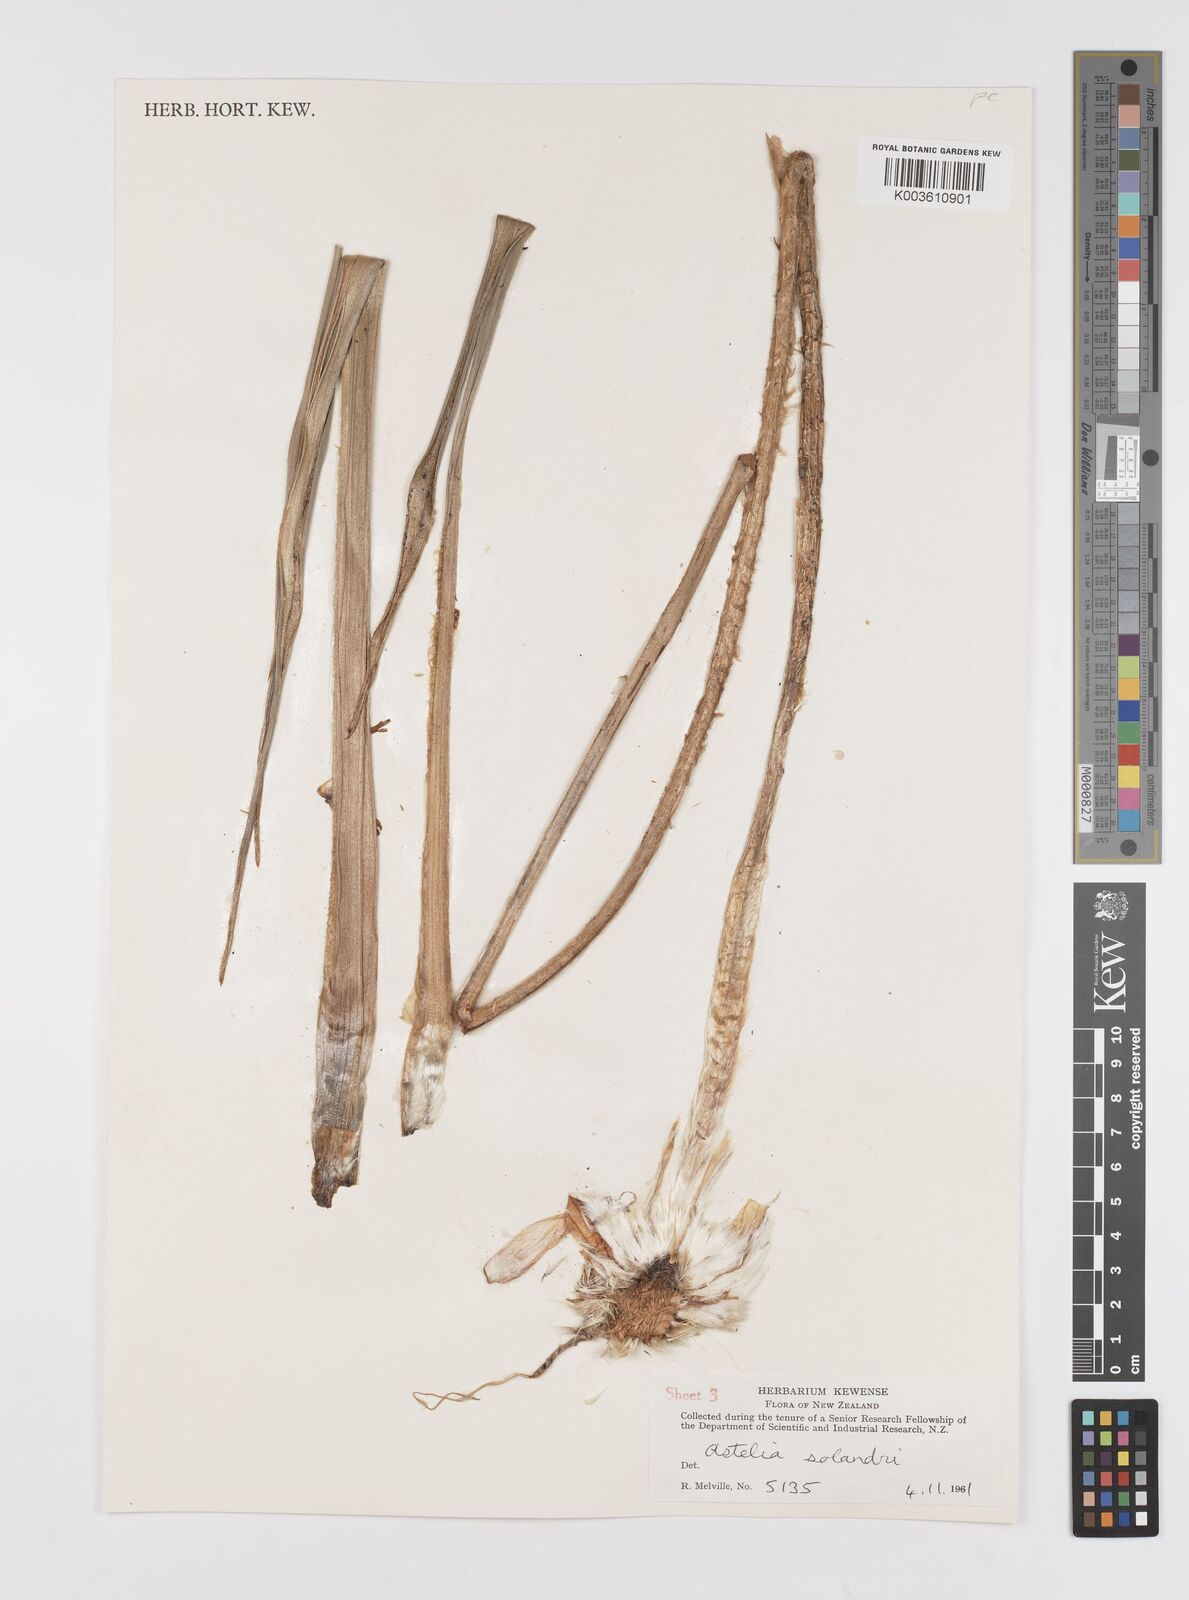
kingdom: Plantae
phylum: Tracheophyta
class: Liliopsida
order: Asparagales
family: Asteliaceae
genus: Astelia
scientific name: Astelia solandri
